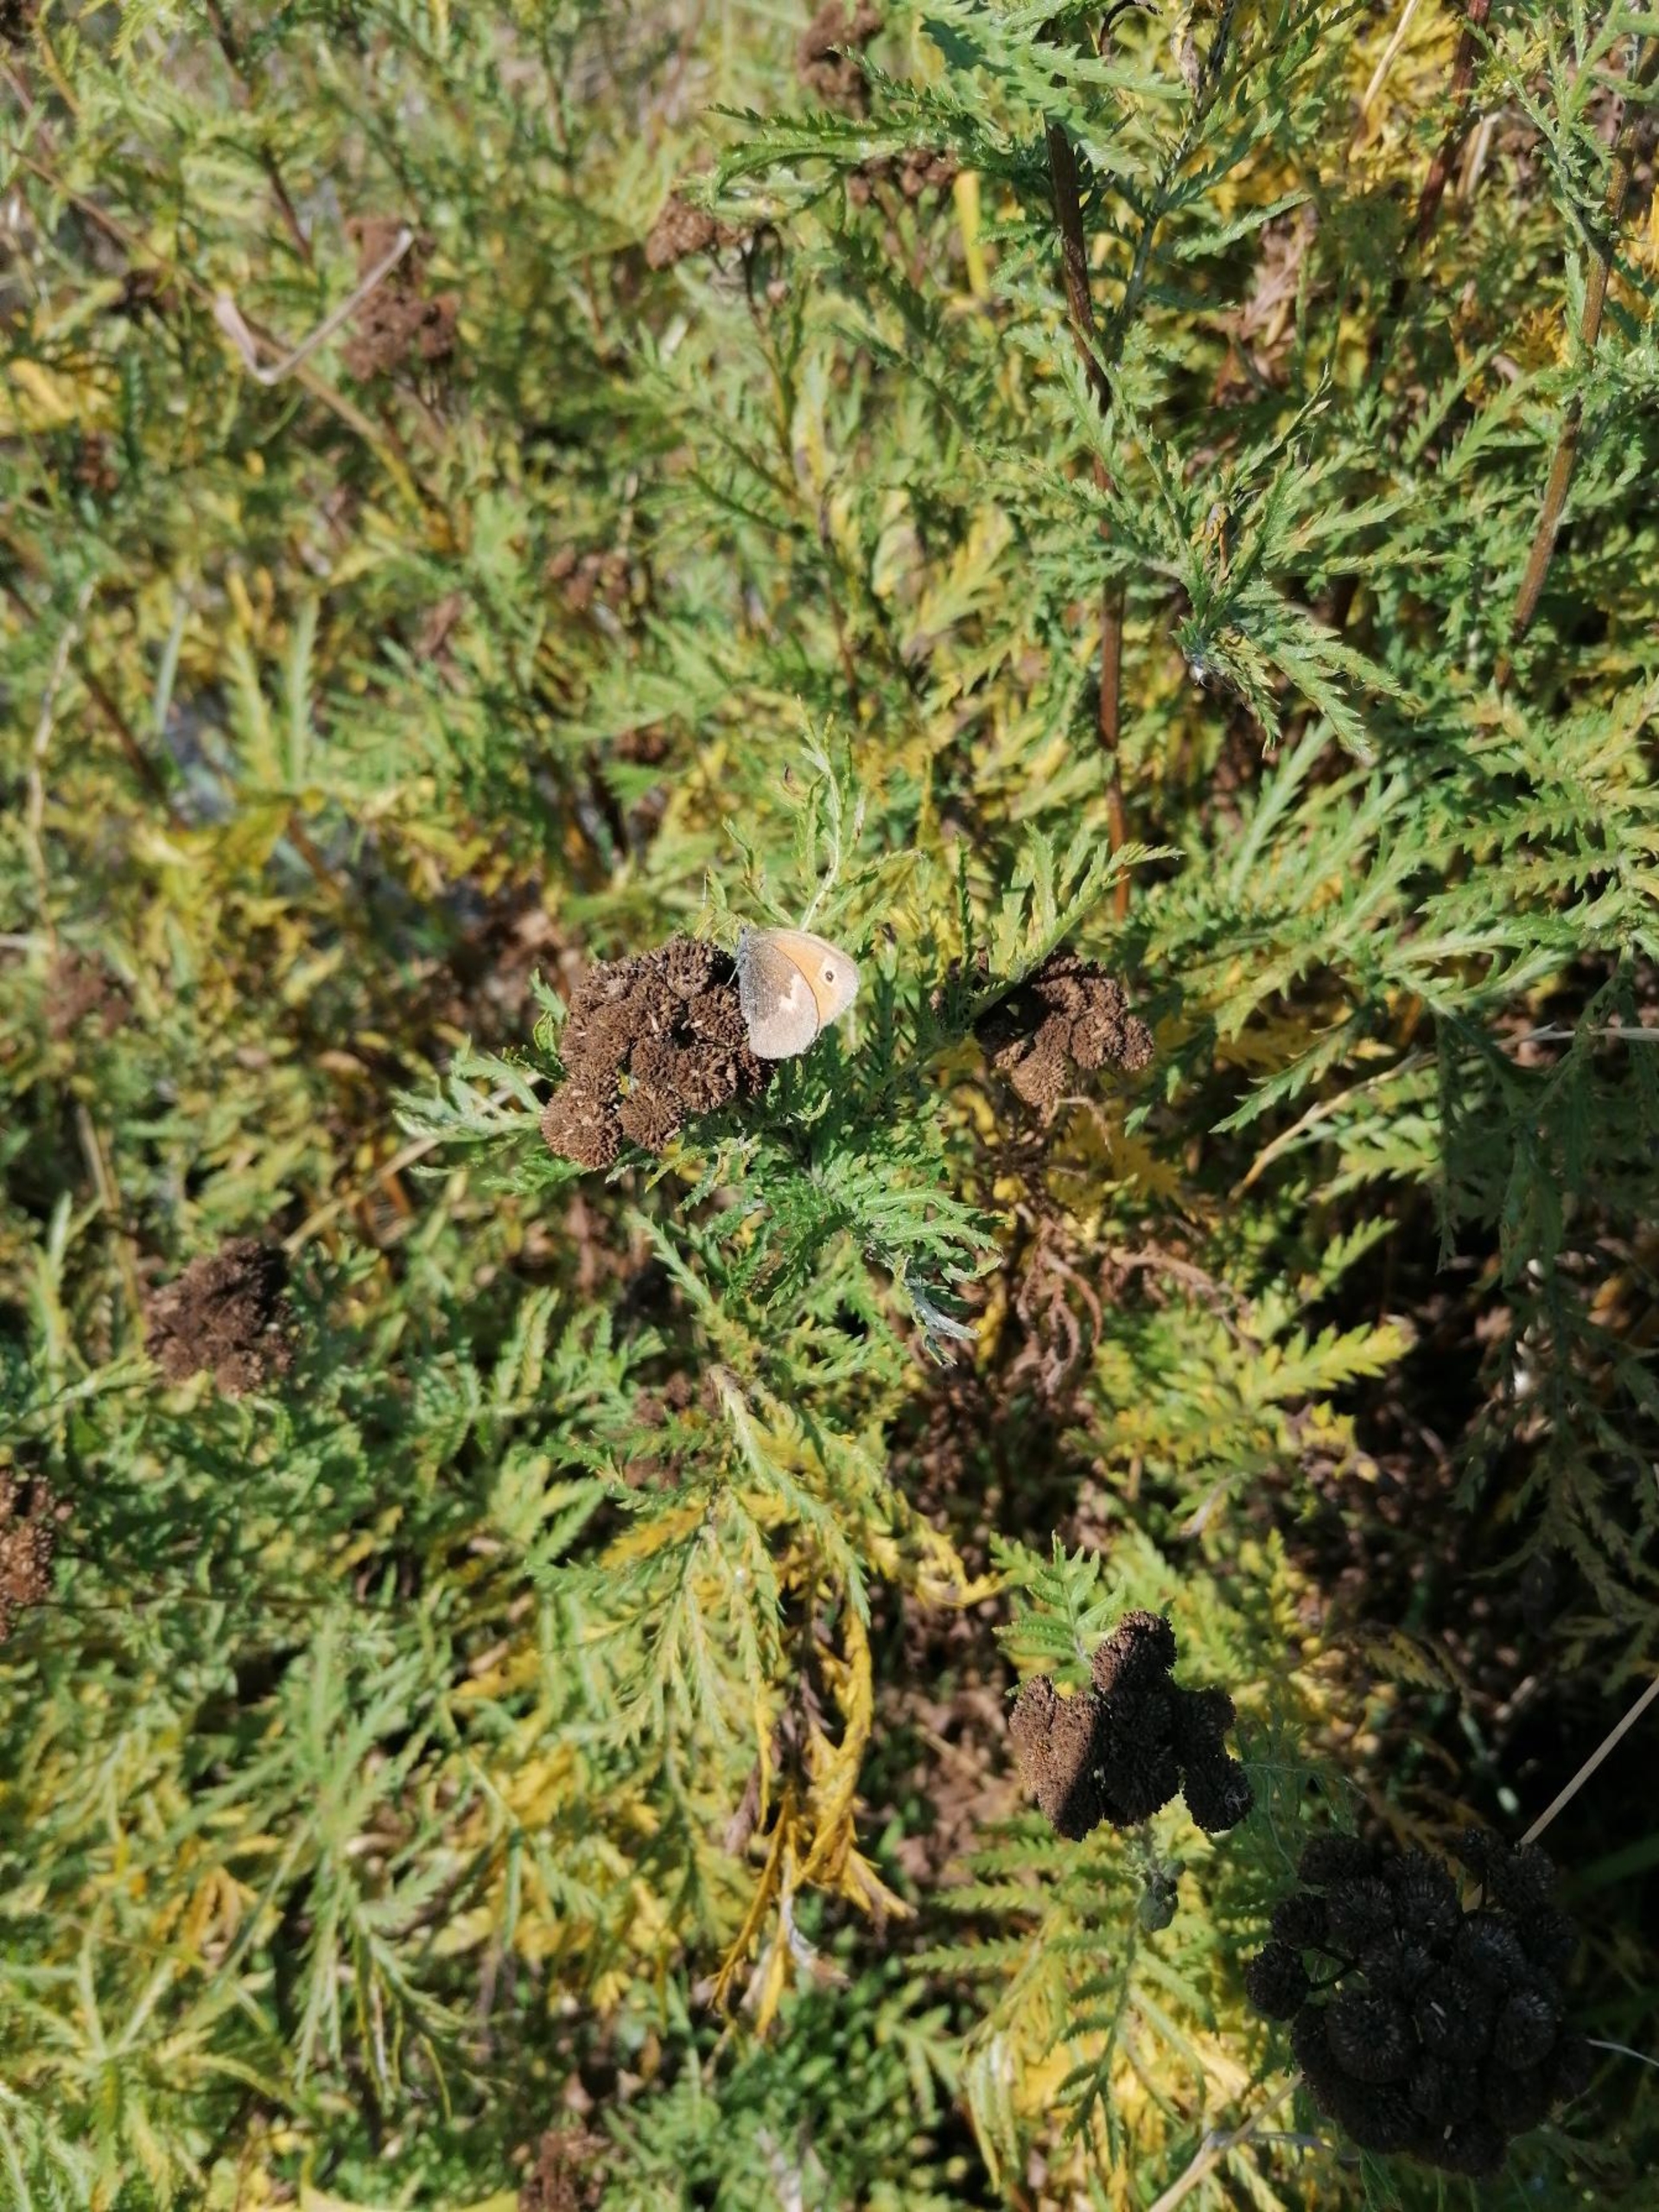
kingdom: Animalia
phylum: Arthropoda
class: Insecta
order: Lepidoptera
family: Nymphalidae
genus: Coenonympha
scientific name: Coenonympha pamphilus
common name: Okkergul randøje
